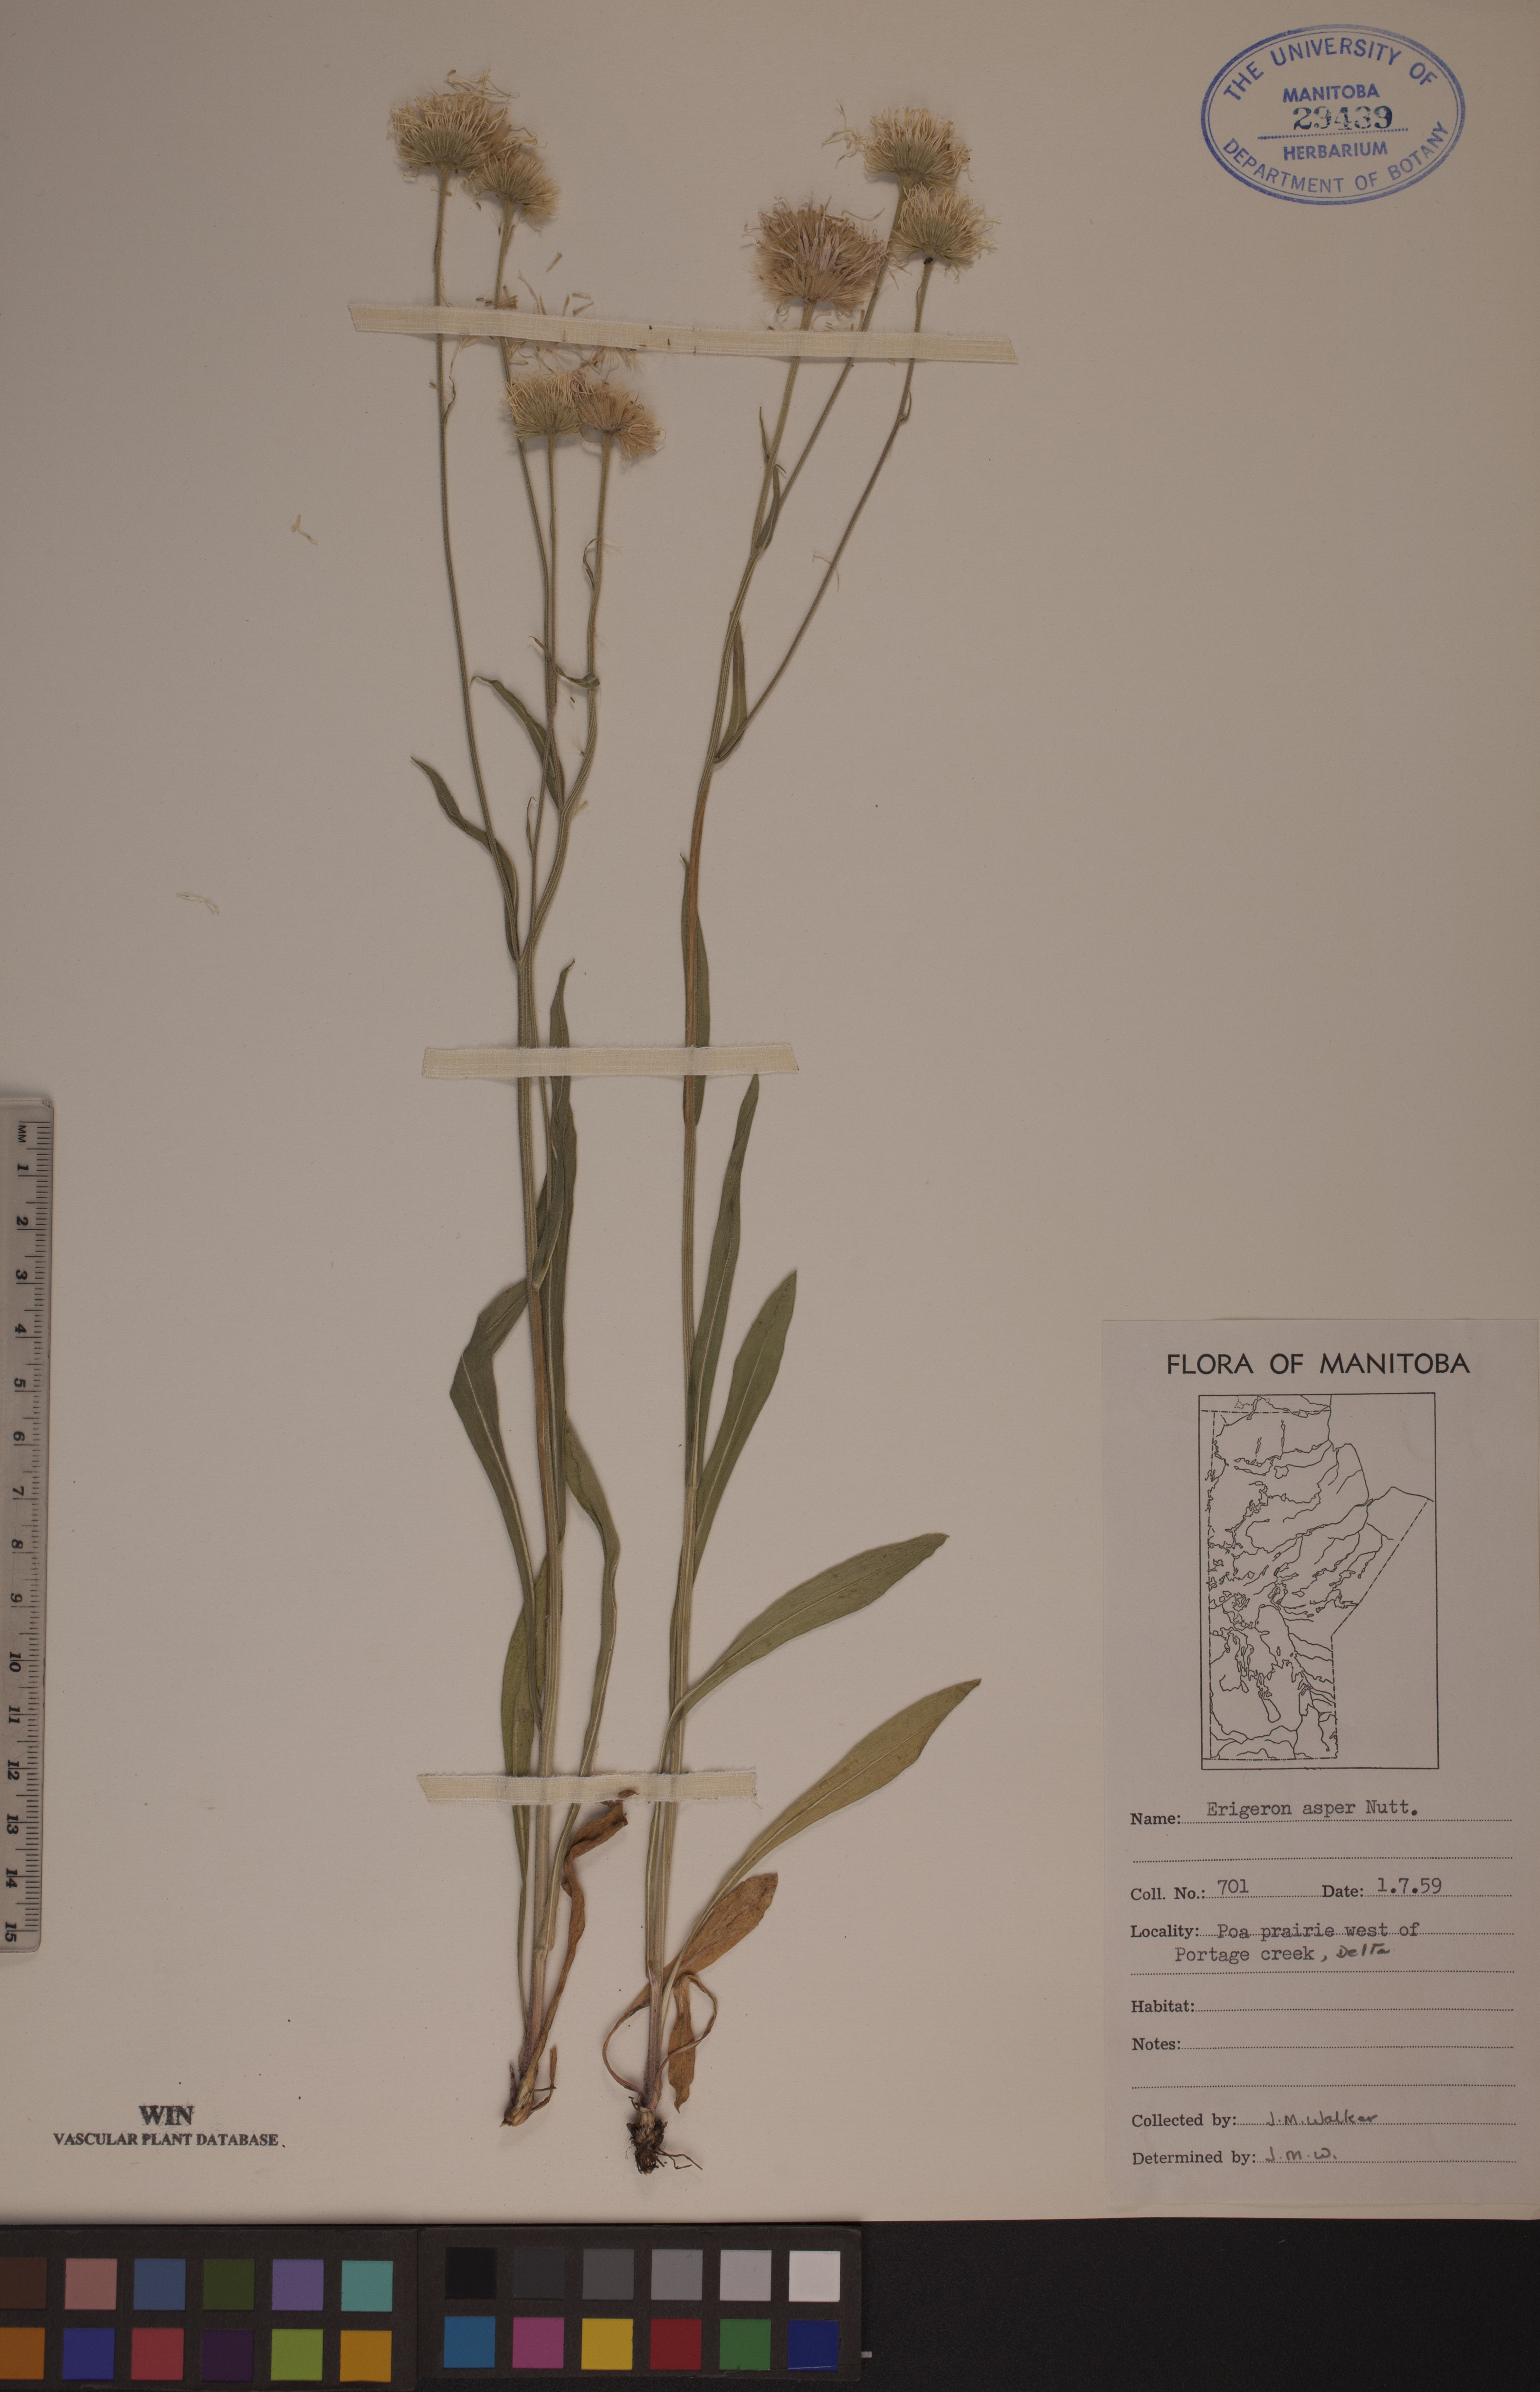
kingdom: Plantae
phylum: Tracheophyta
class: Magnoliopsida
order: Asterales
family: Asteraceae
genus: Erigeron
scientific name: Erigeron glabellus
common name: Smooth fleabane
